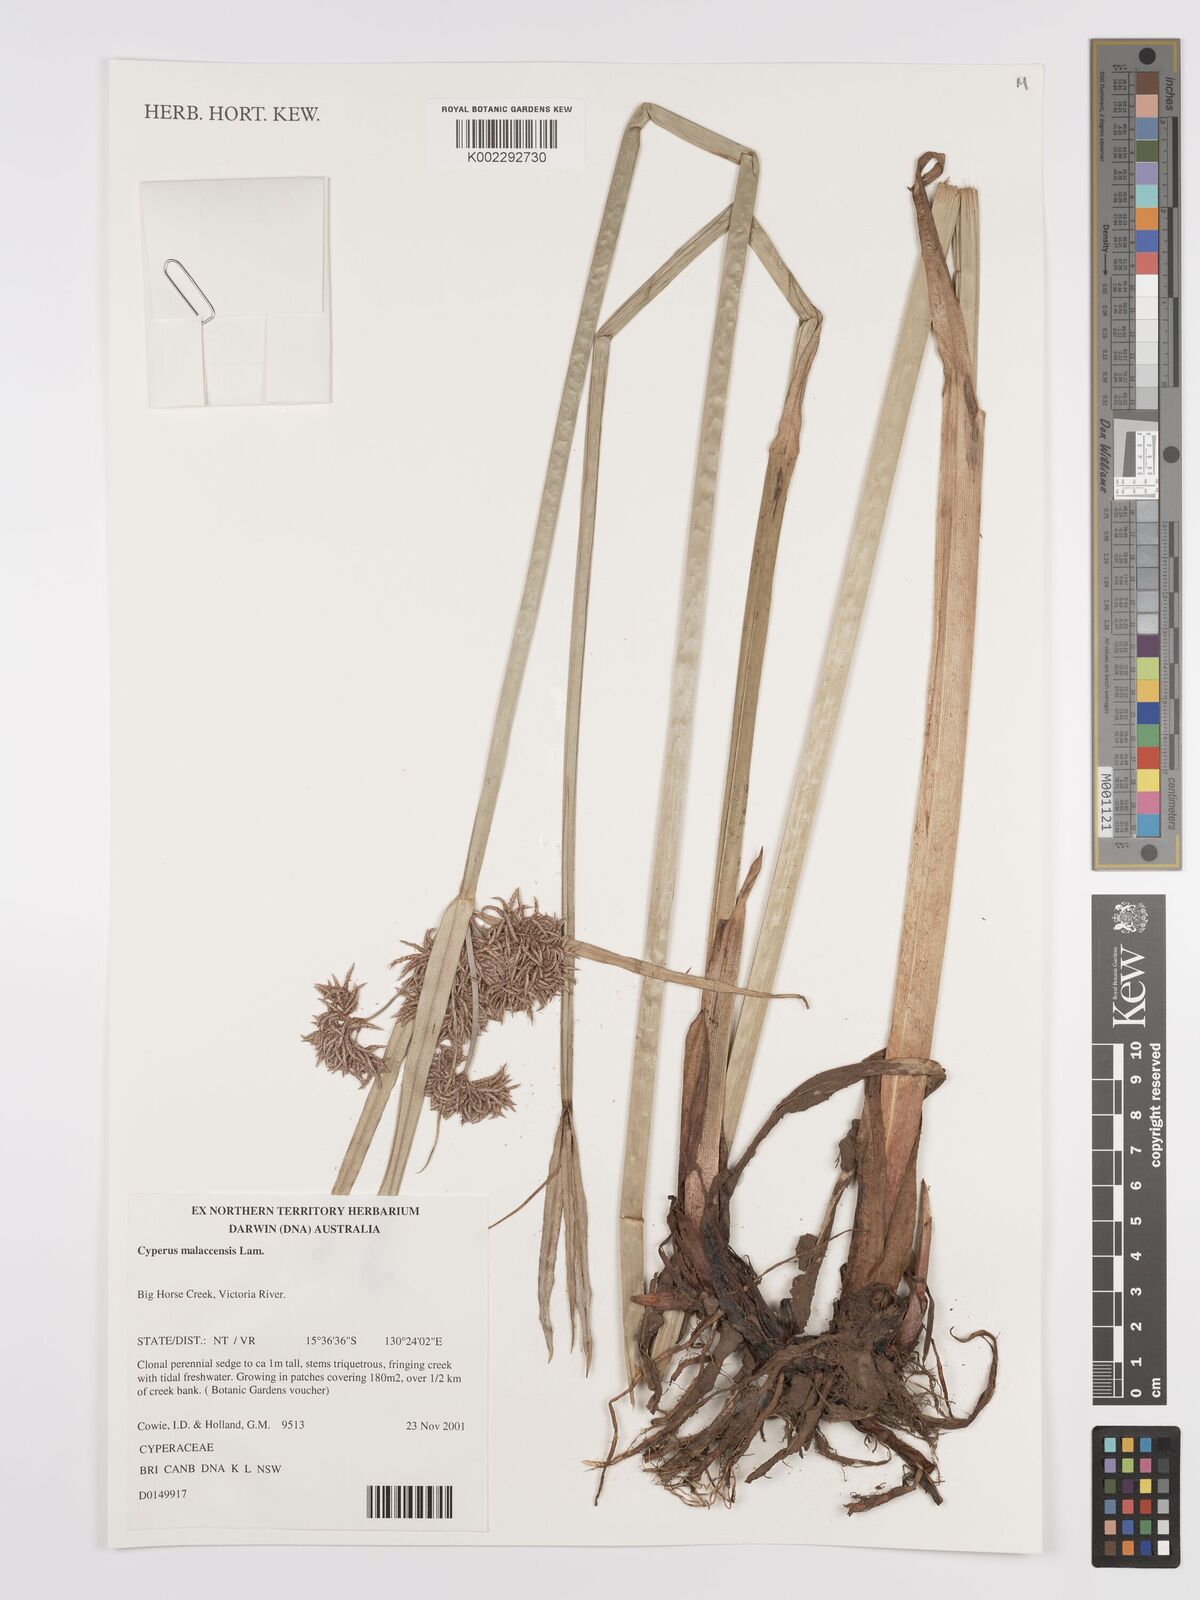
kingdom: Plantae
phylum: Tracheophyta
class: Liliopsida
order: Poales
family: Cyperaceae
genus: Cyperus
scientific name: Cyperus malaccensis
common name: Shichito matgrass
